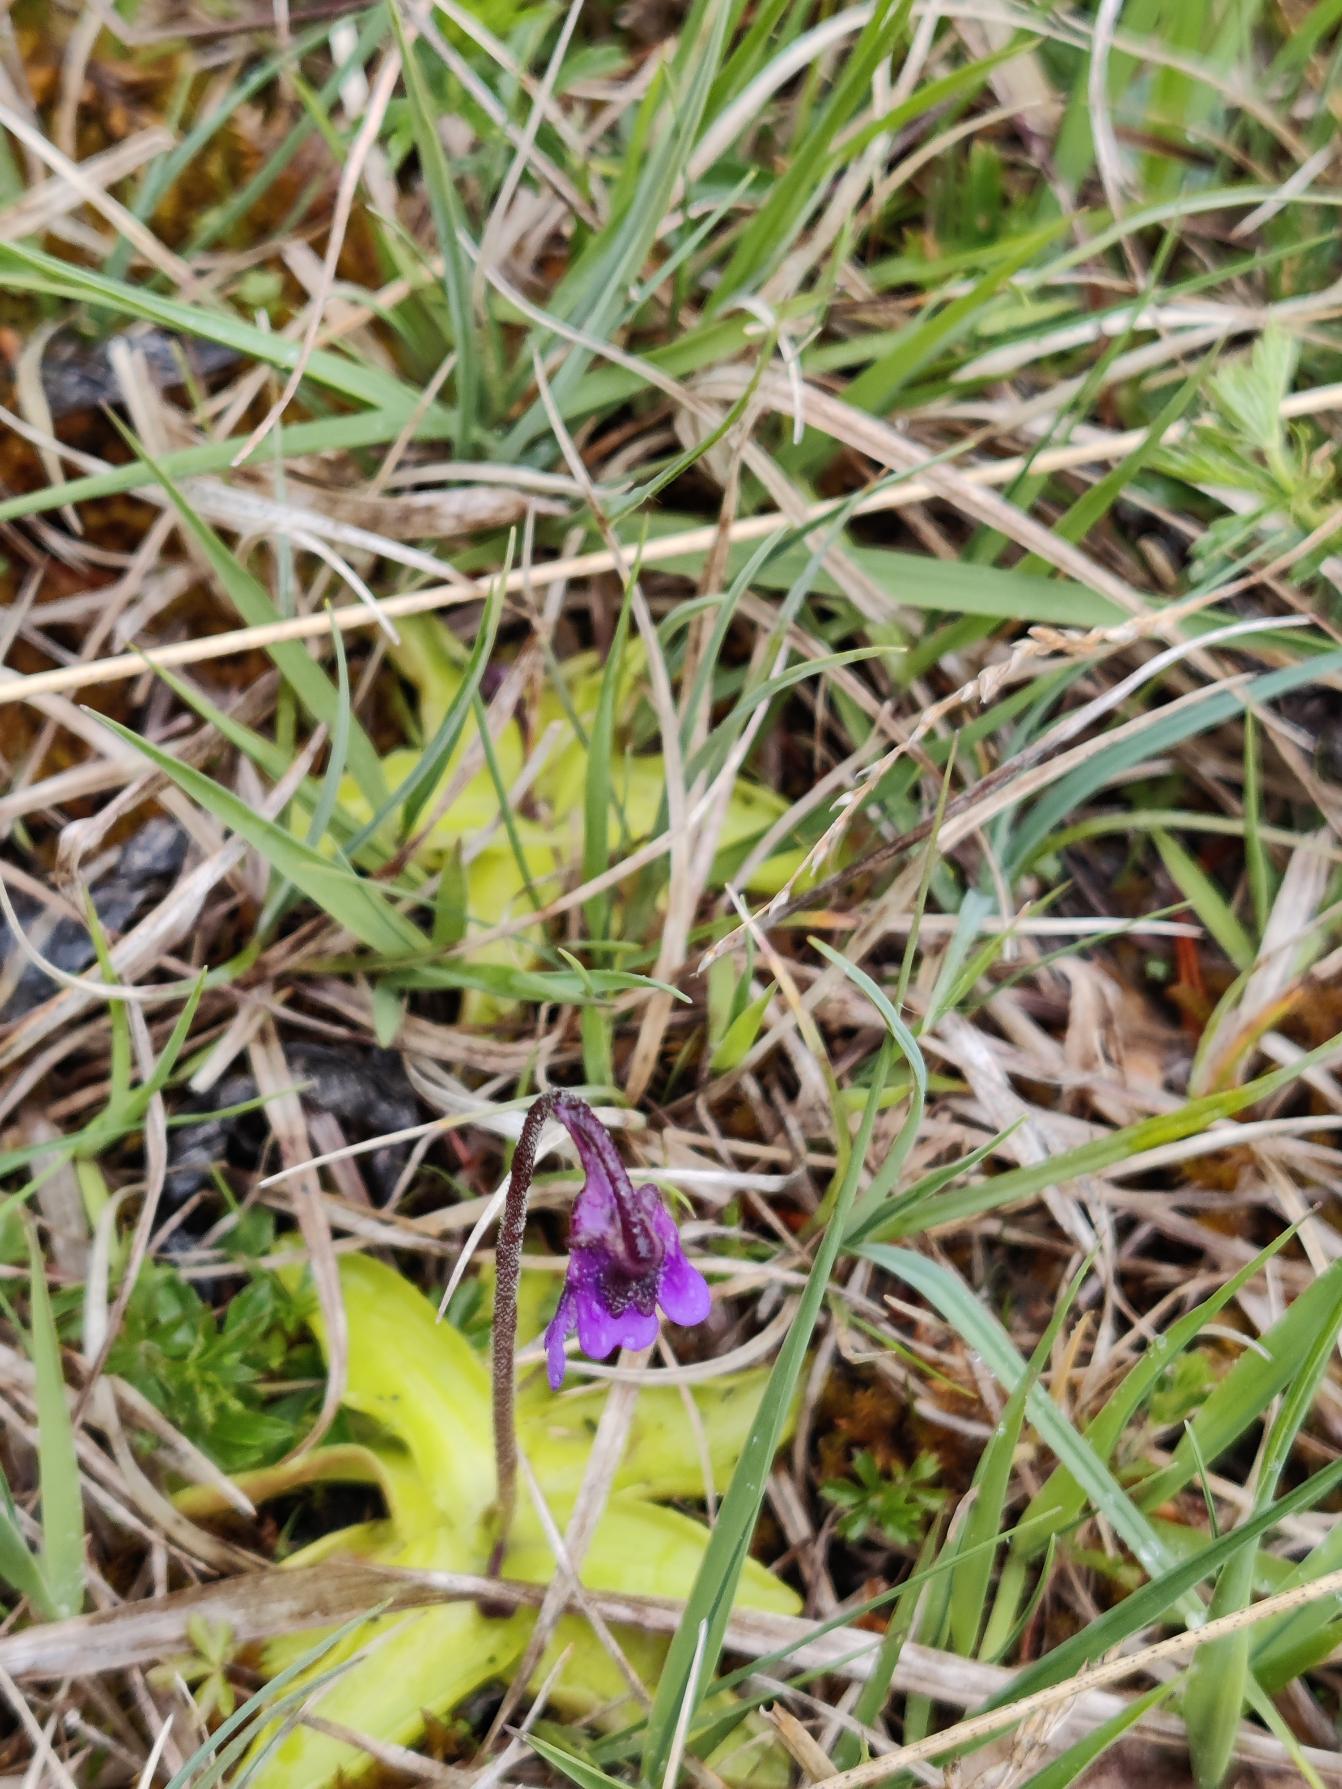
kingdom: Plantae
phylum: Tracheophyta
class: Magnoliopsida
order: Lamiales
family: Lentibulariaceae
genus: Pinguicula
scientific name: Pinguicula vulgaris
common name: Vibefedt
